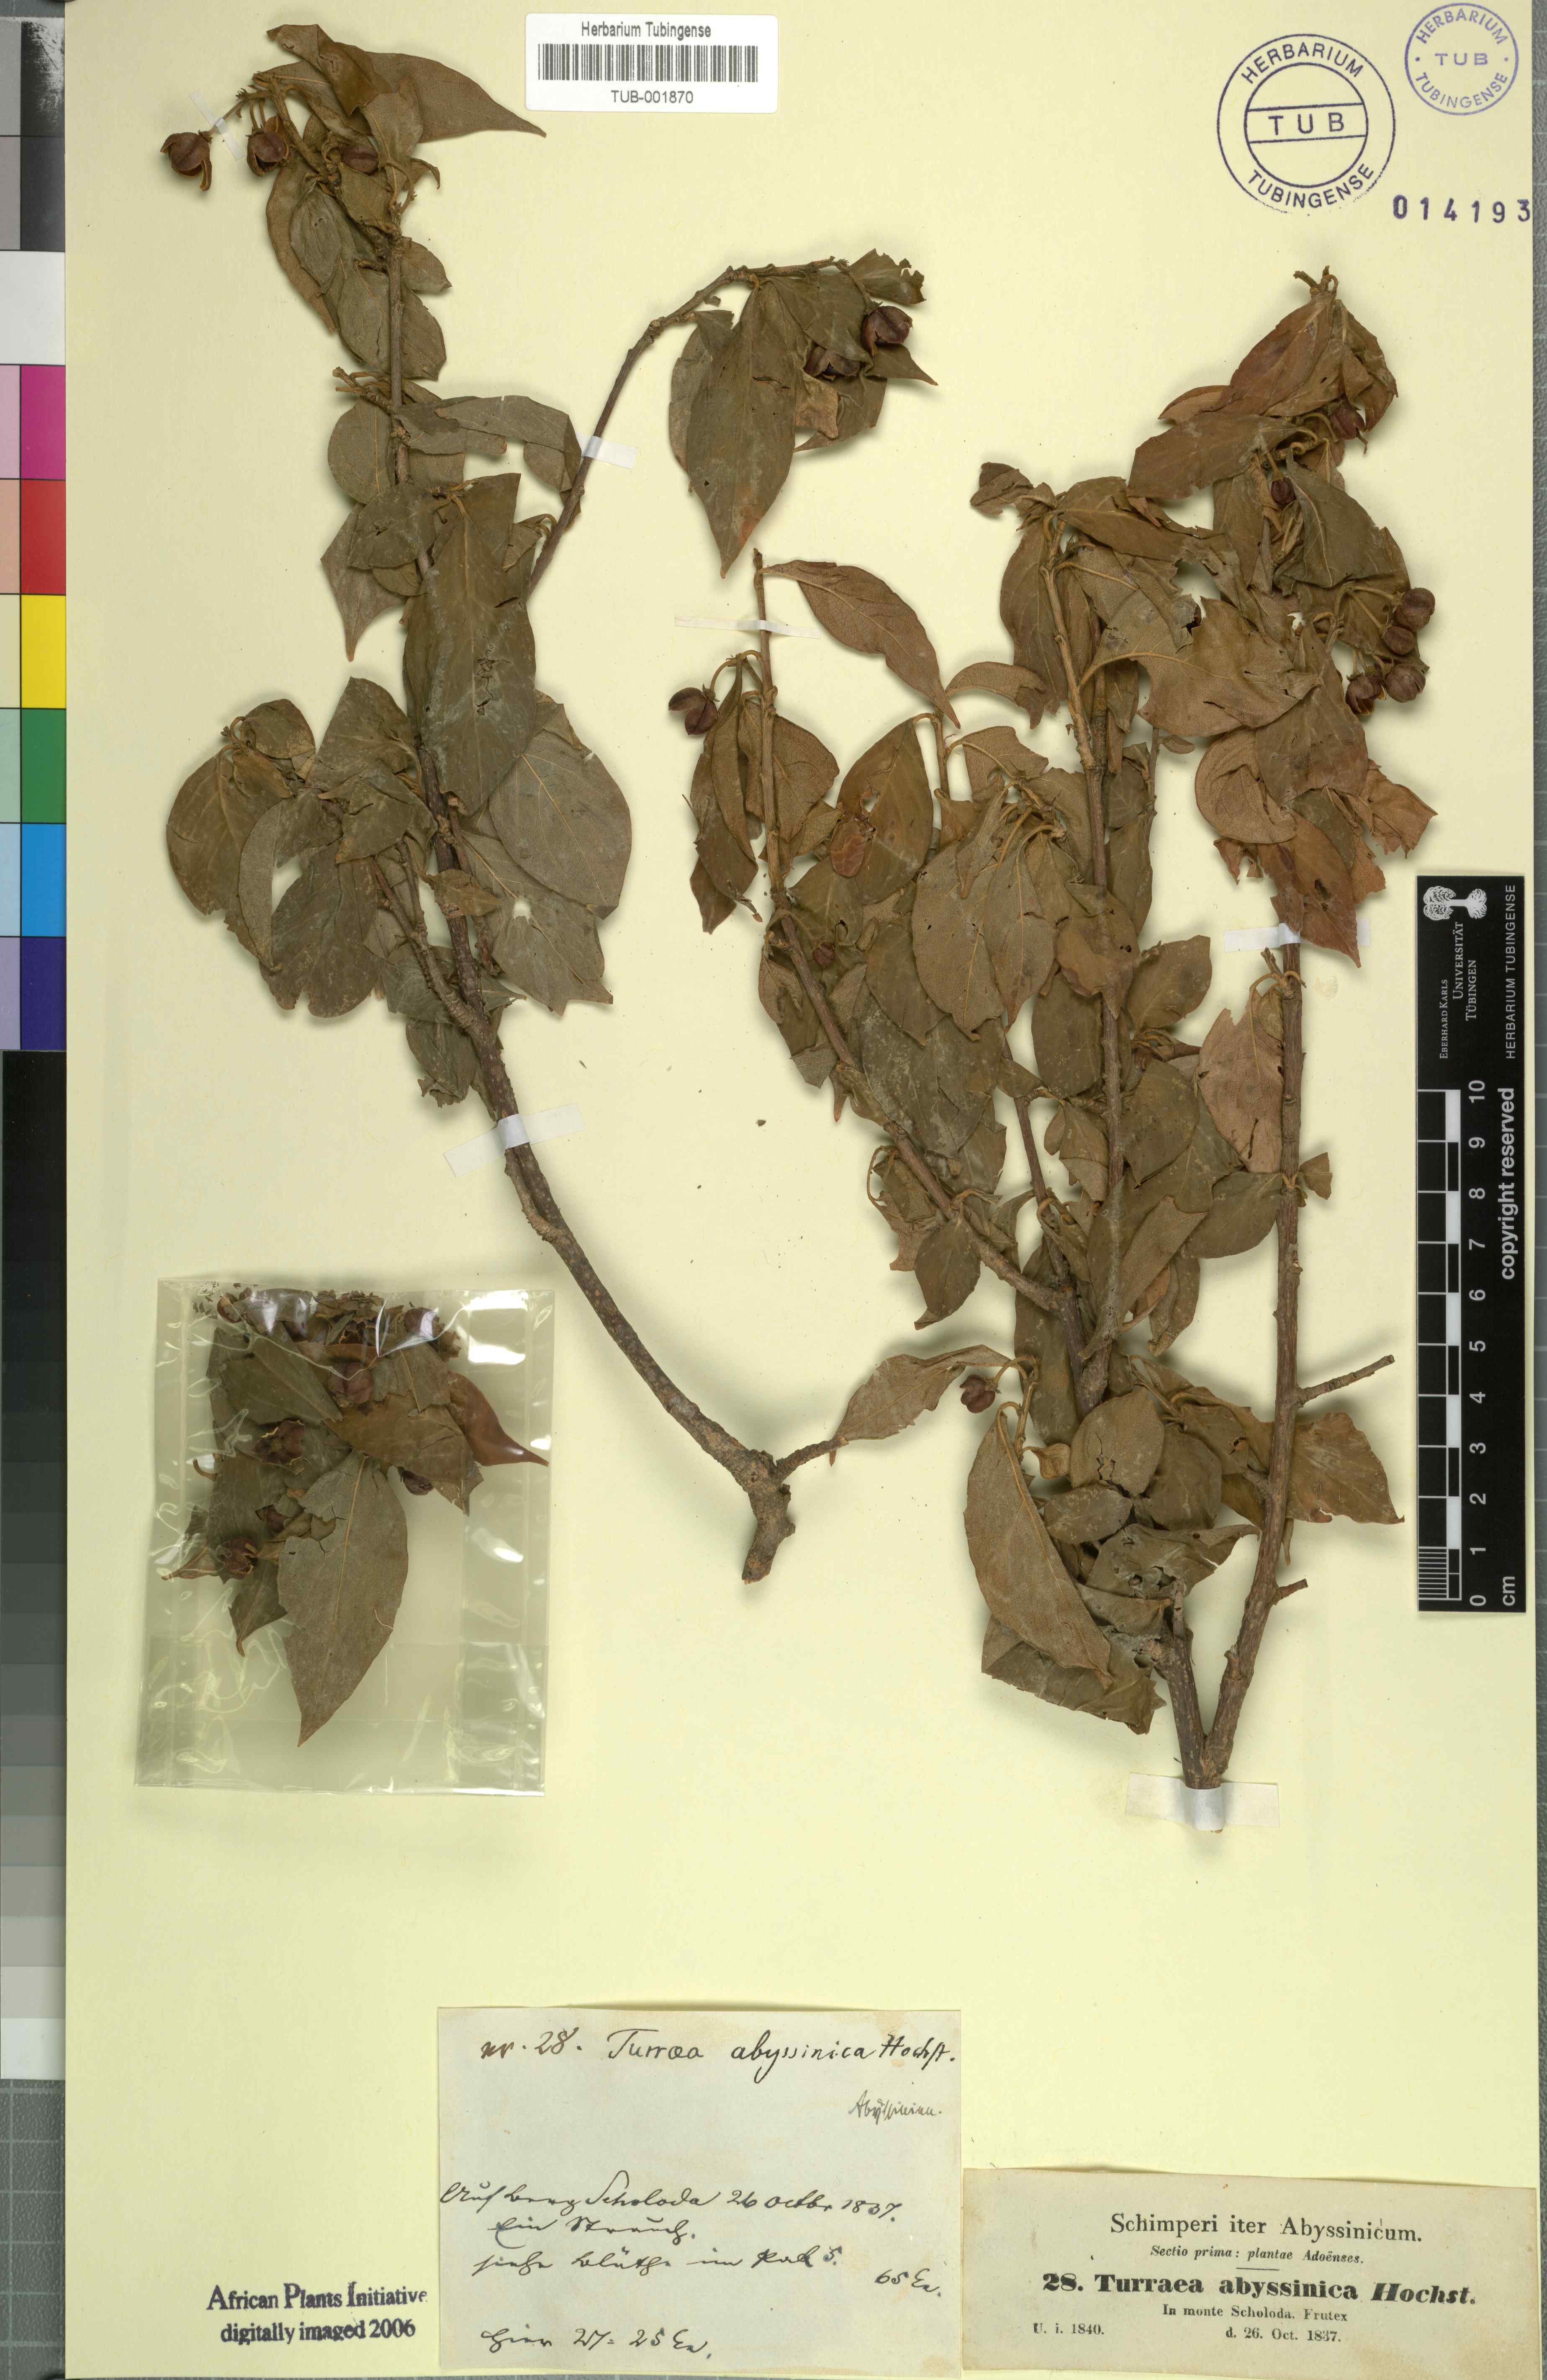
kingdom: Plantae
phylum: Tracheophyta
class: Magnoliopsida
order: Sapindales
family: Meliaceae
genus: Turraea
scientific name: Turraea abyssinica
